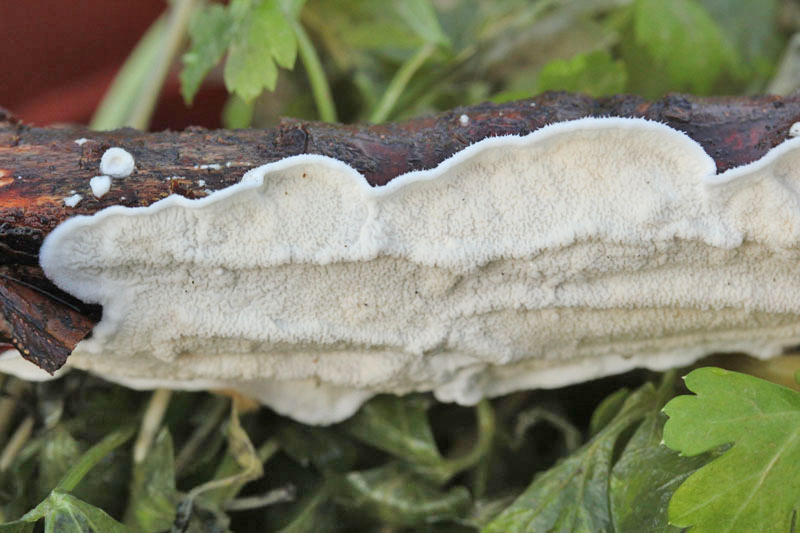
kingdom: Fungi
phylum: Basidiomycota
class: Agaricomycetes
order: Polyporales
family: Irpicaceae
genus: Byssomerulius
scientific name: Byssomerulius corium
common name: læder-åresvamp
